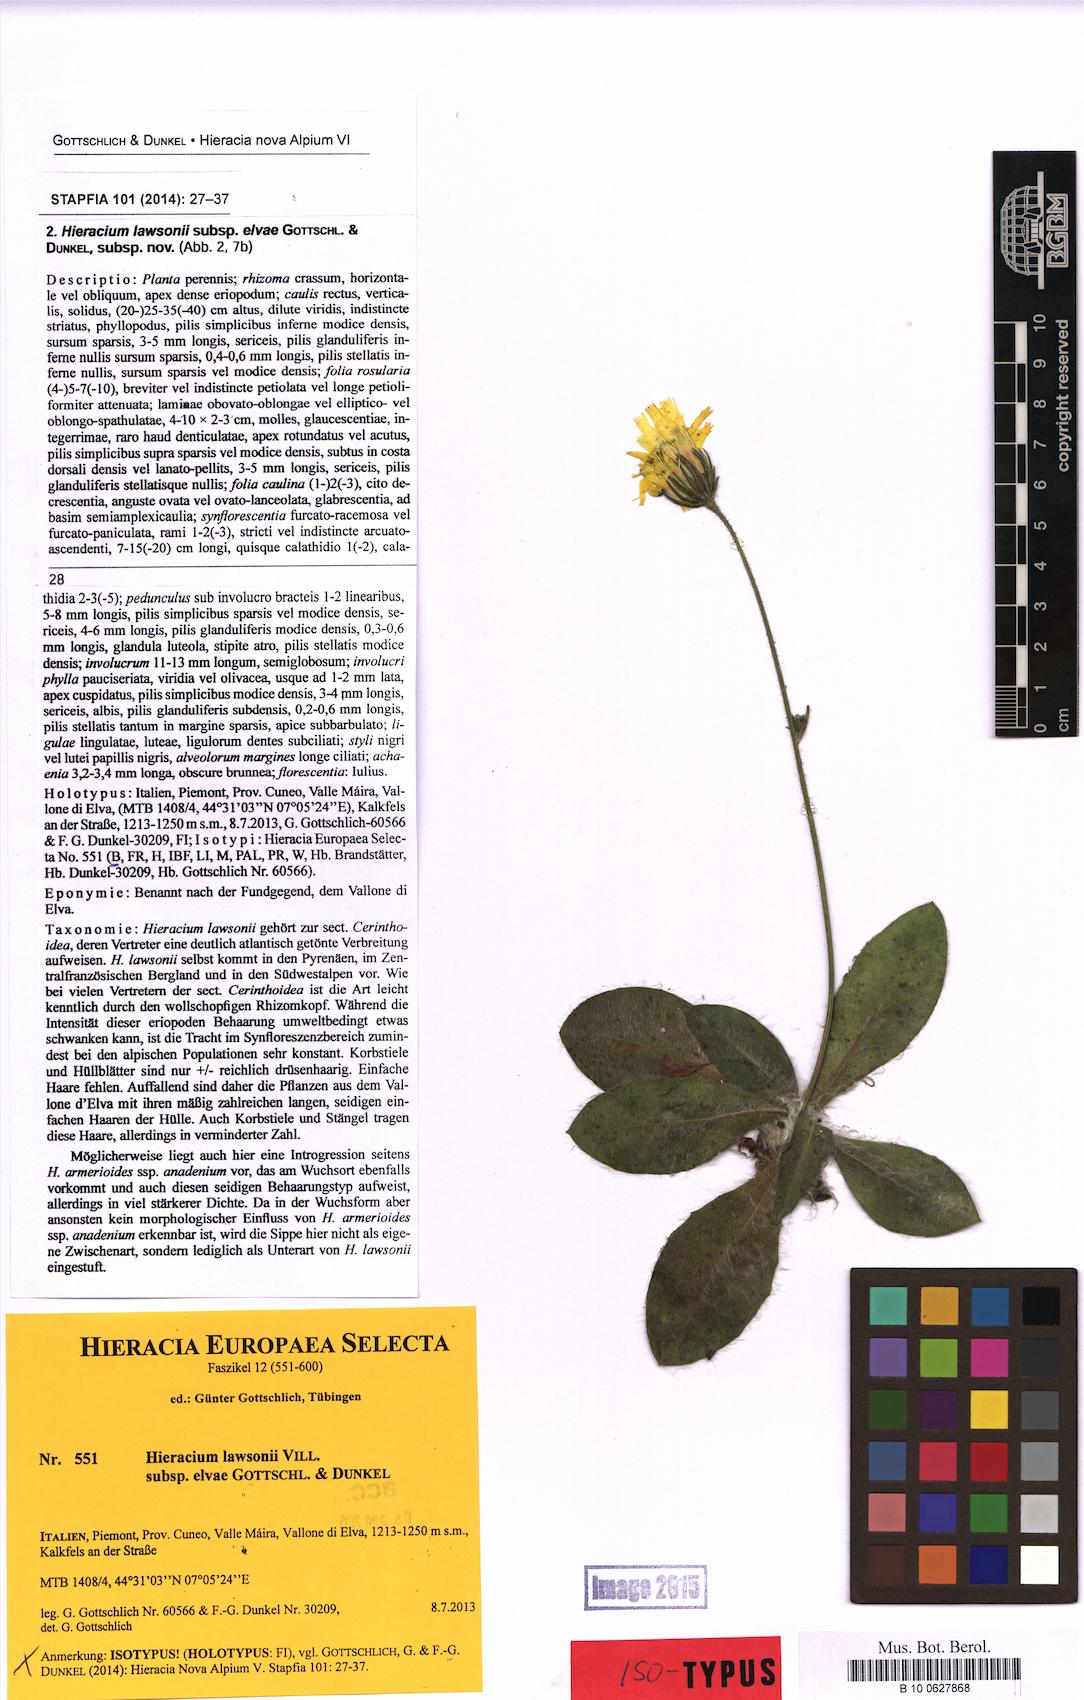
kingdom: Plantae
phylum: Tracheophyta
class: Magnoliopsida
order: Asterales
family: Asteraceae
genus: Hieracium
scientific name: Hieracium lawsonii
